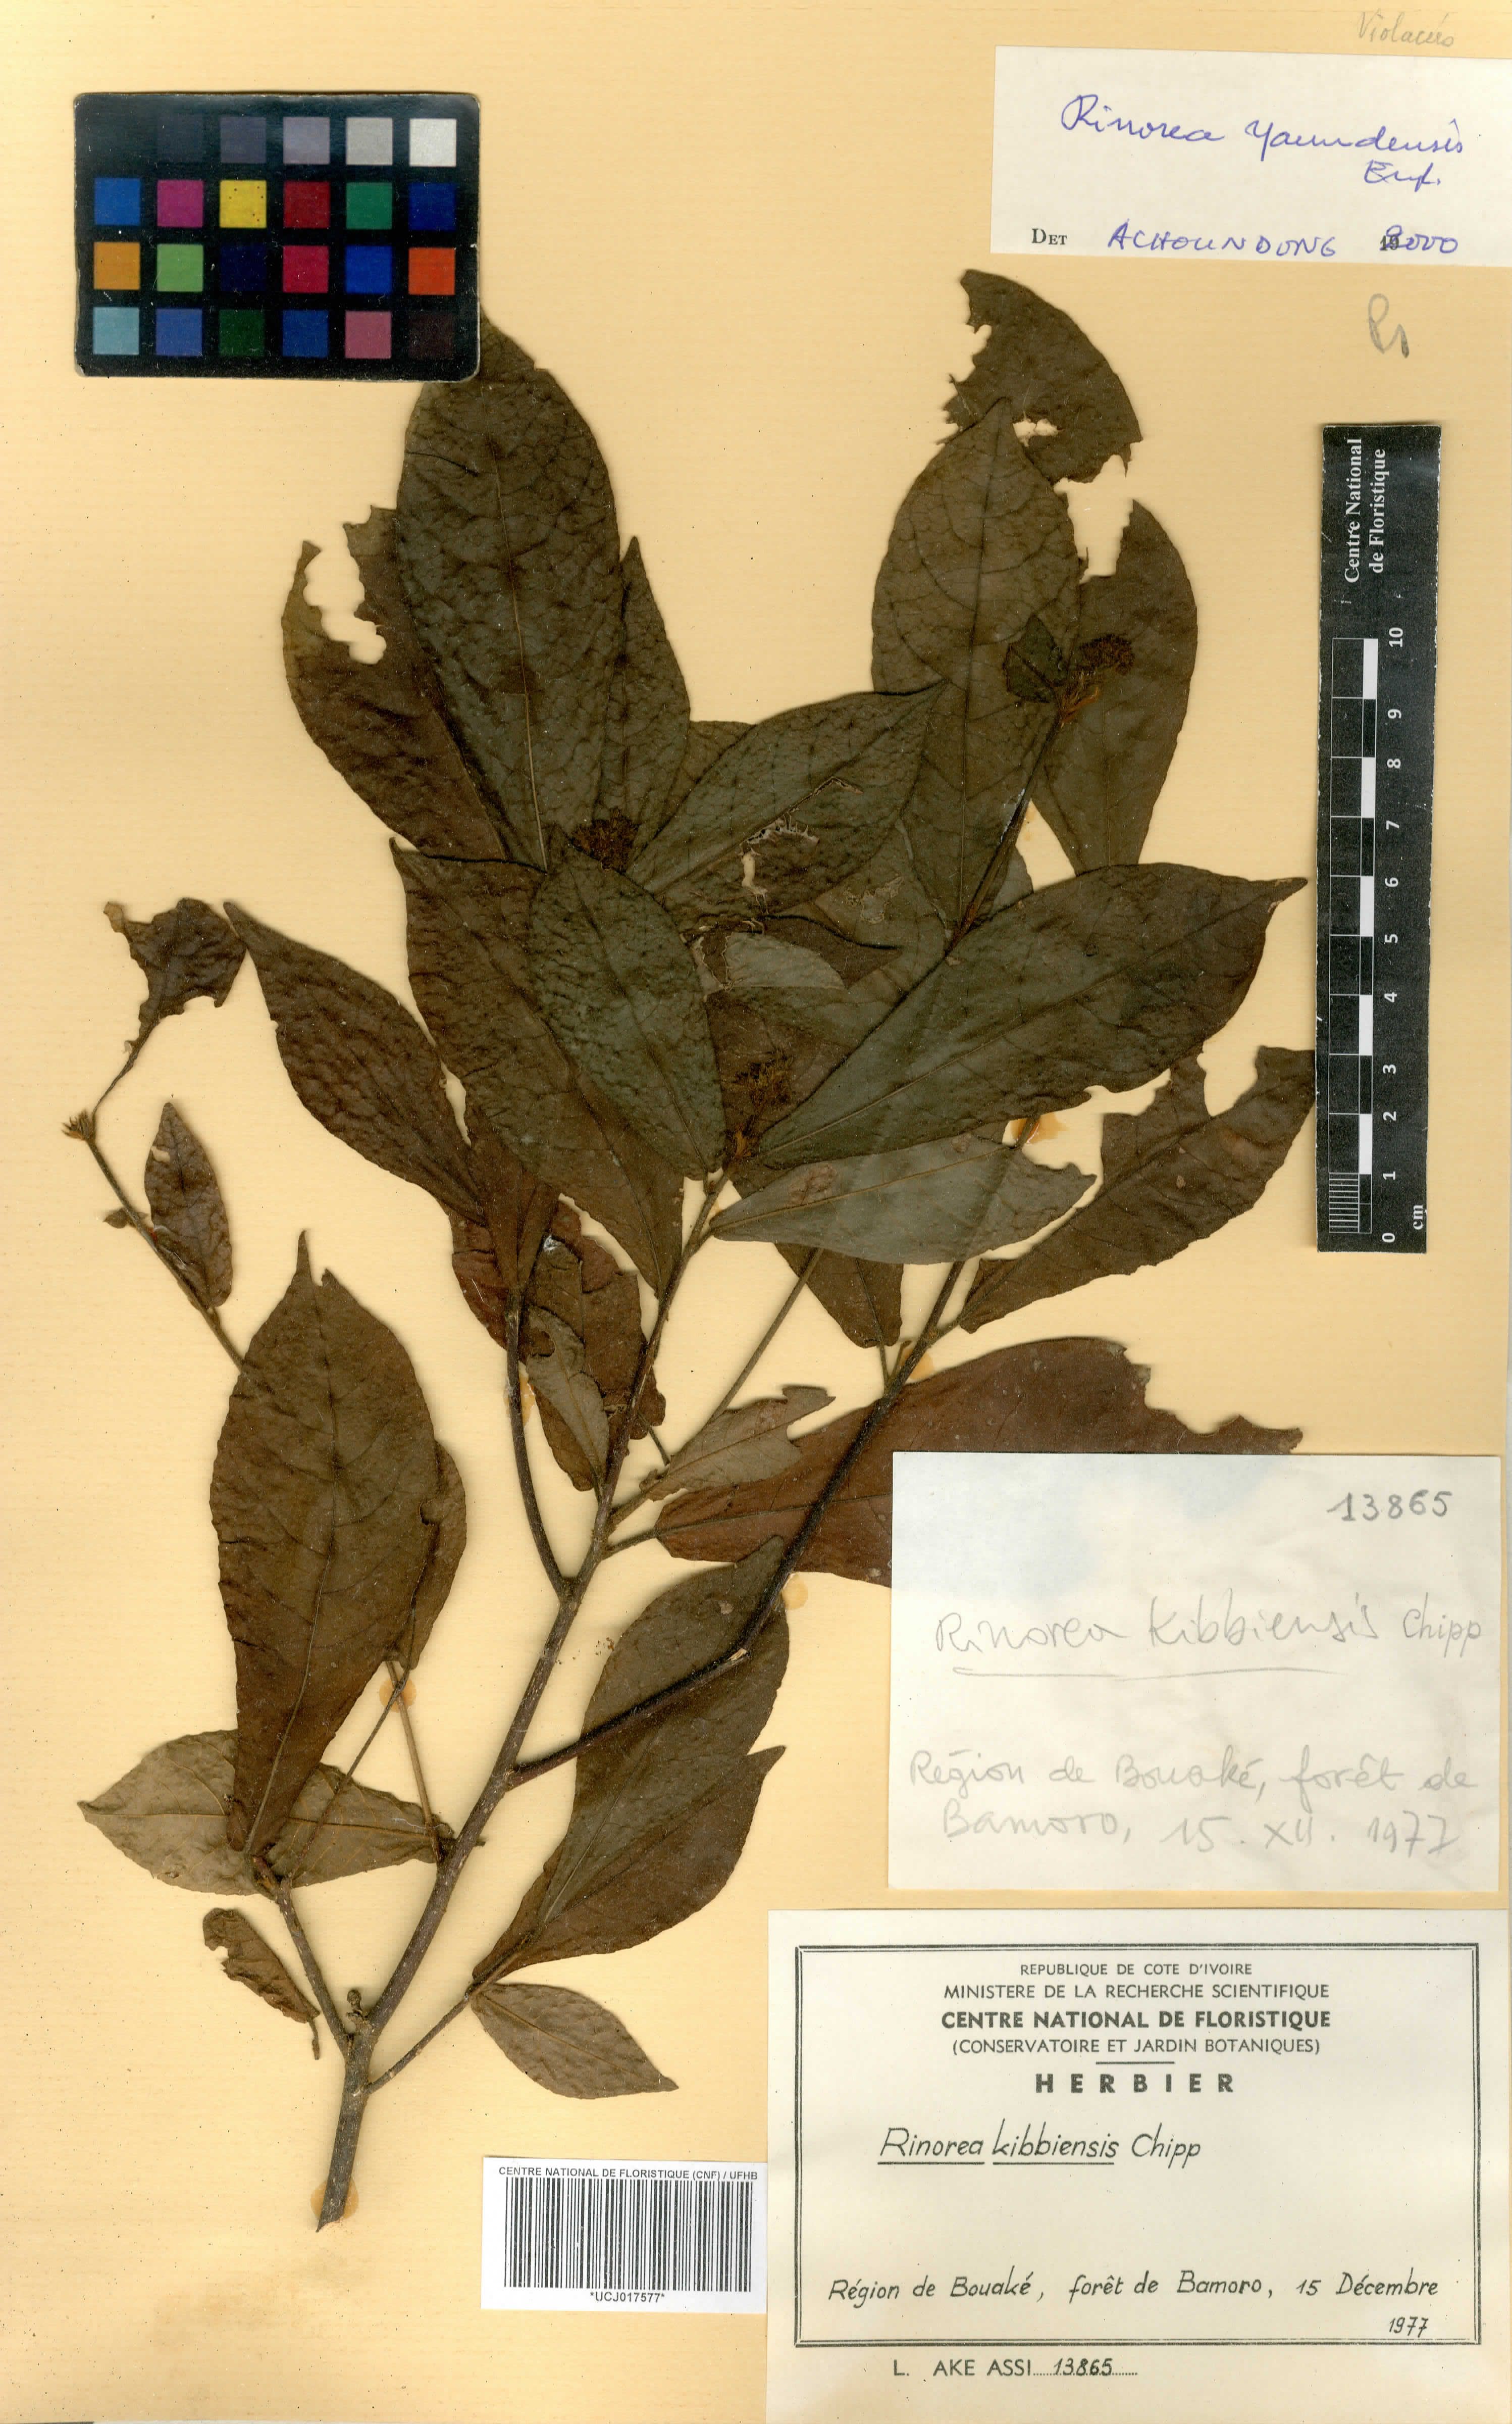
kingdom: Plantae
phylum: Tracheophyta
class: Magnoliopsida
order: Malpighiales
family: Violaceae
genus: Rinorea
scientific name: Rinorea kibbiensis
